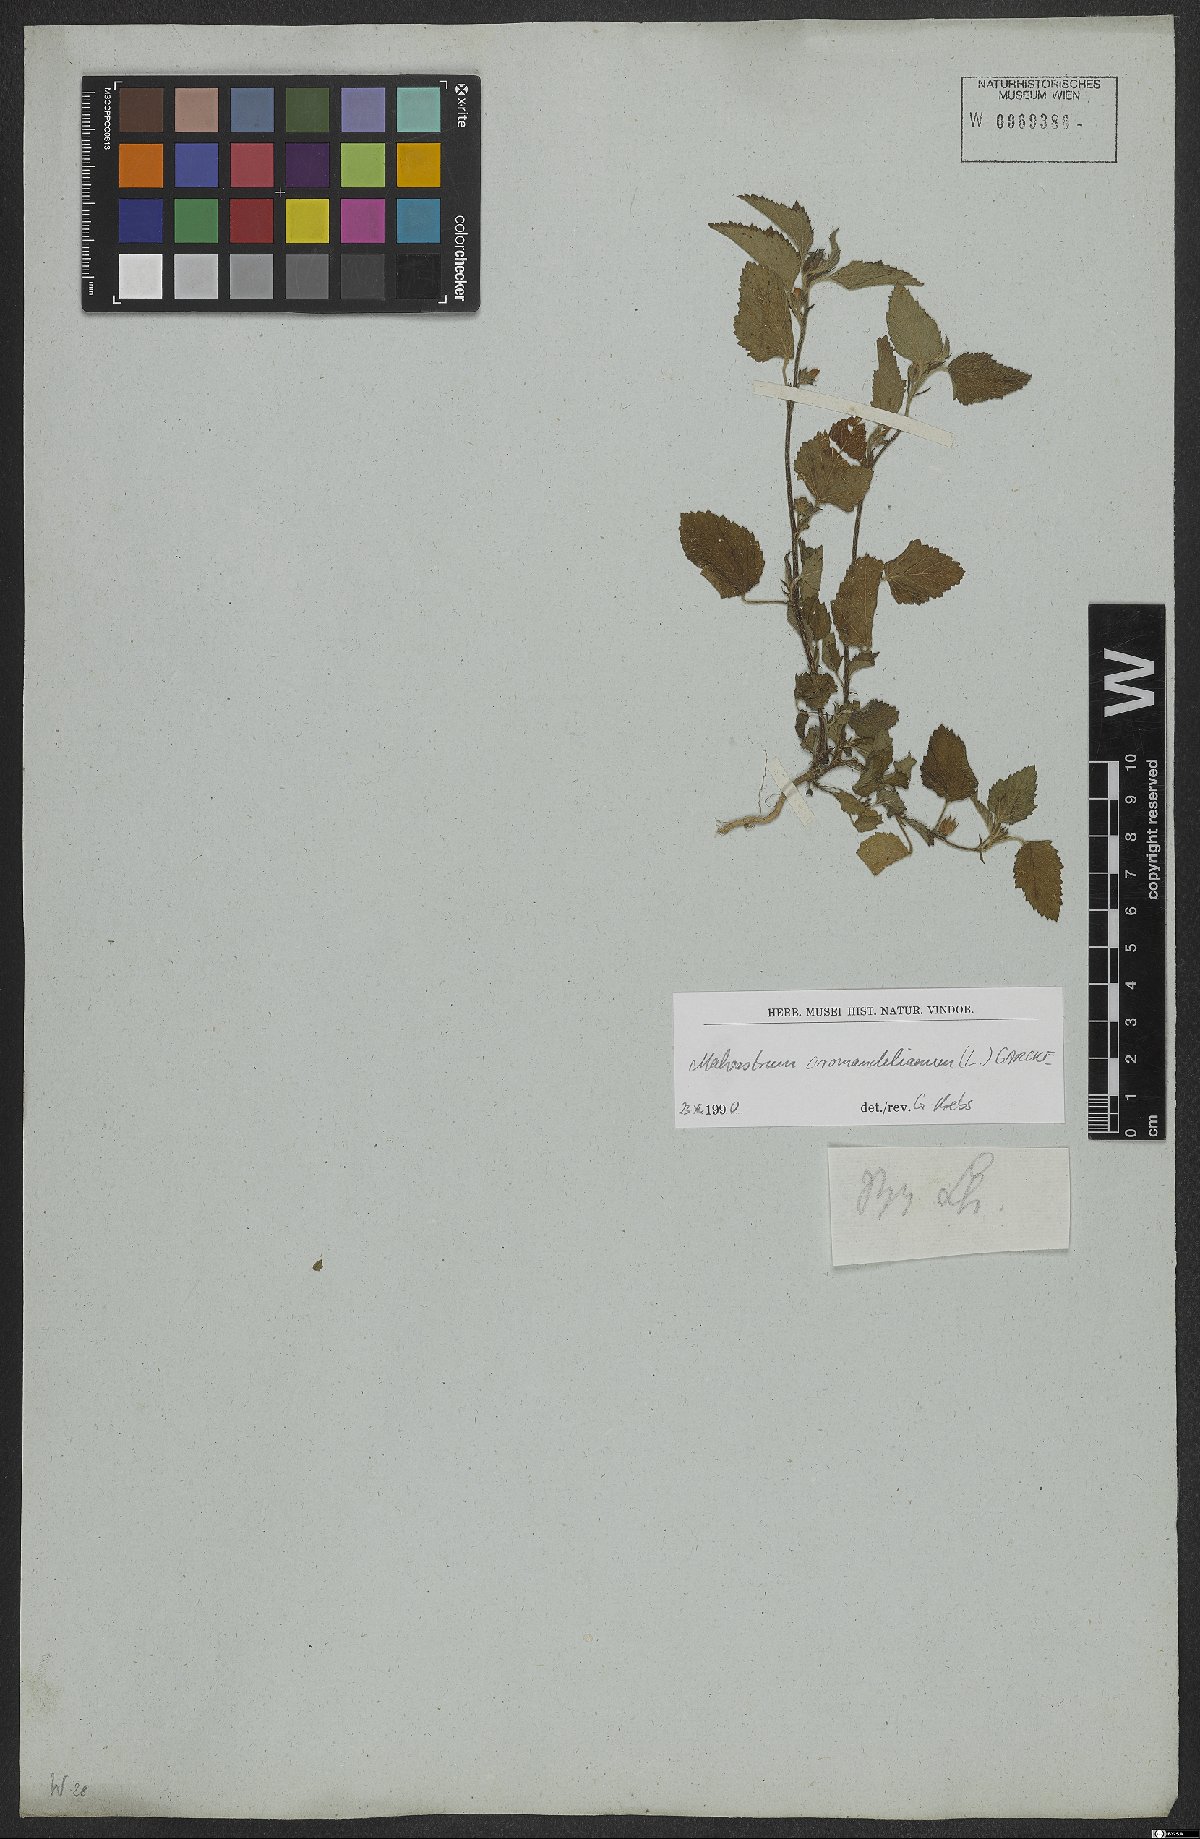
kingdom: Plantae
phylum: Tracheophyta
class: Magnoliopsida
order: Malvales
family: Malvaceae
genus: Malvastrum
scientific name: Malvastrum coromandelianum
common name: Threelobe false mallow
